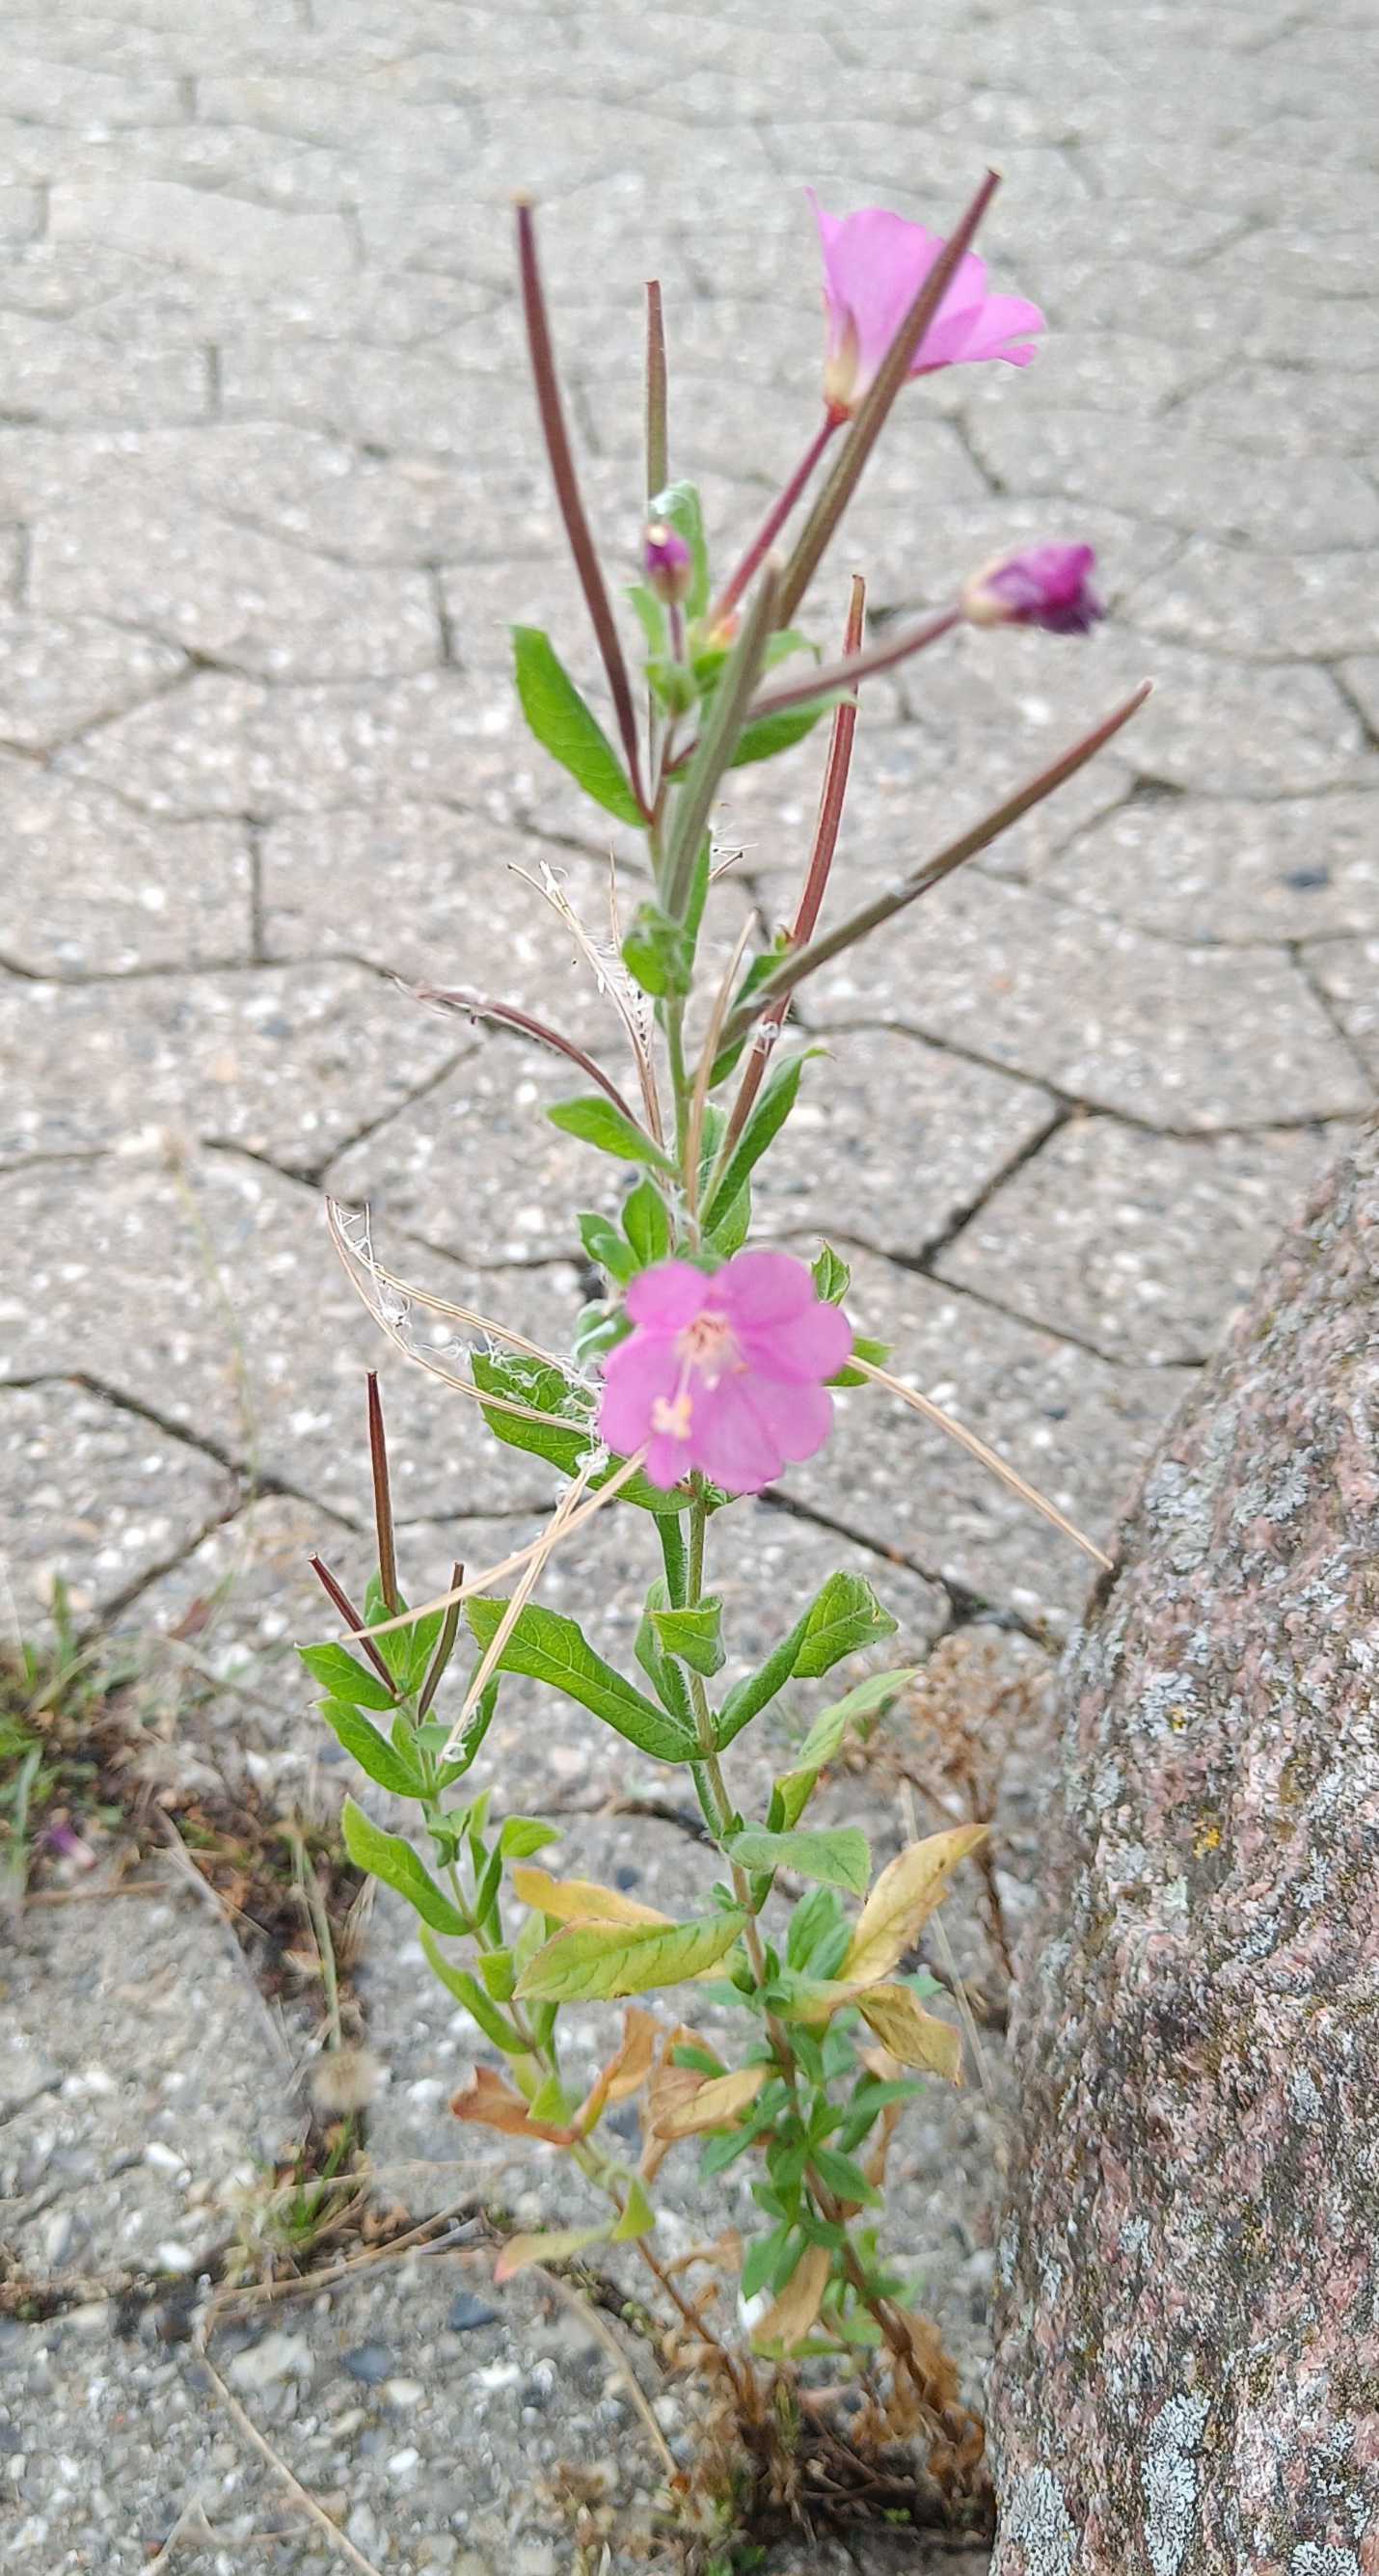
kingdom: Plantae
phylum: Tracheophyta
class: Magnoliopsida
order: Myrtales
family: Onagraceae
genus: Epilobium
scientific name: Epilobium hirsutum
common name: Lådden dueurt
